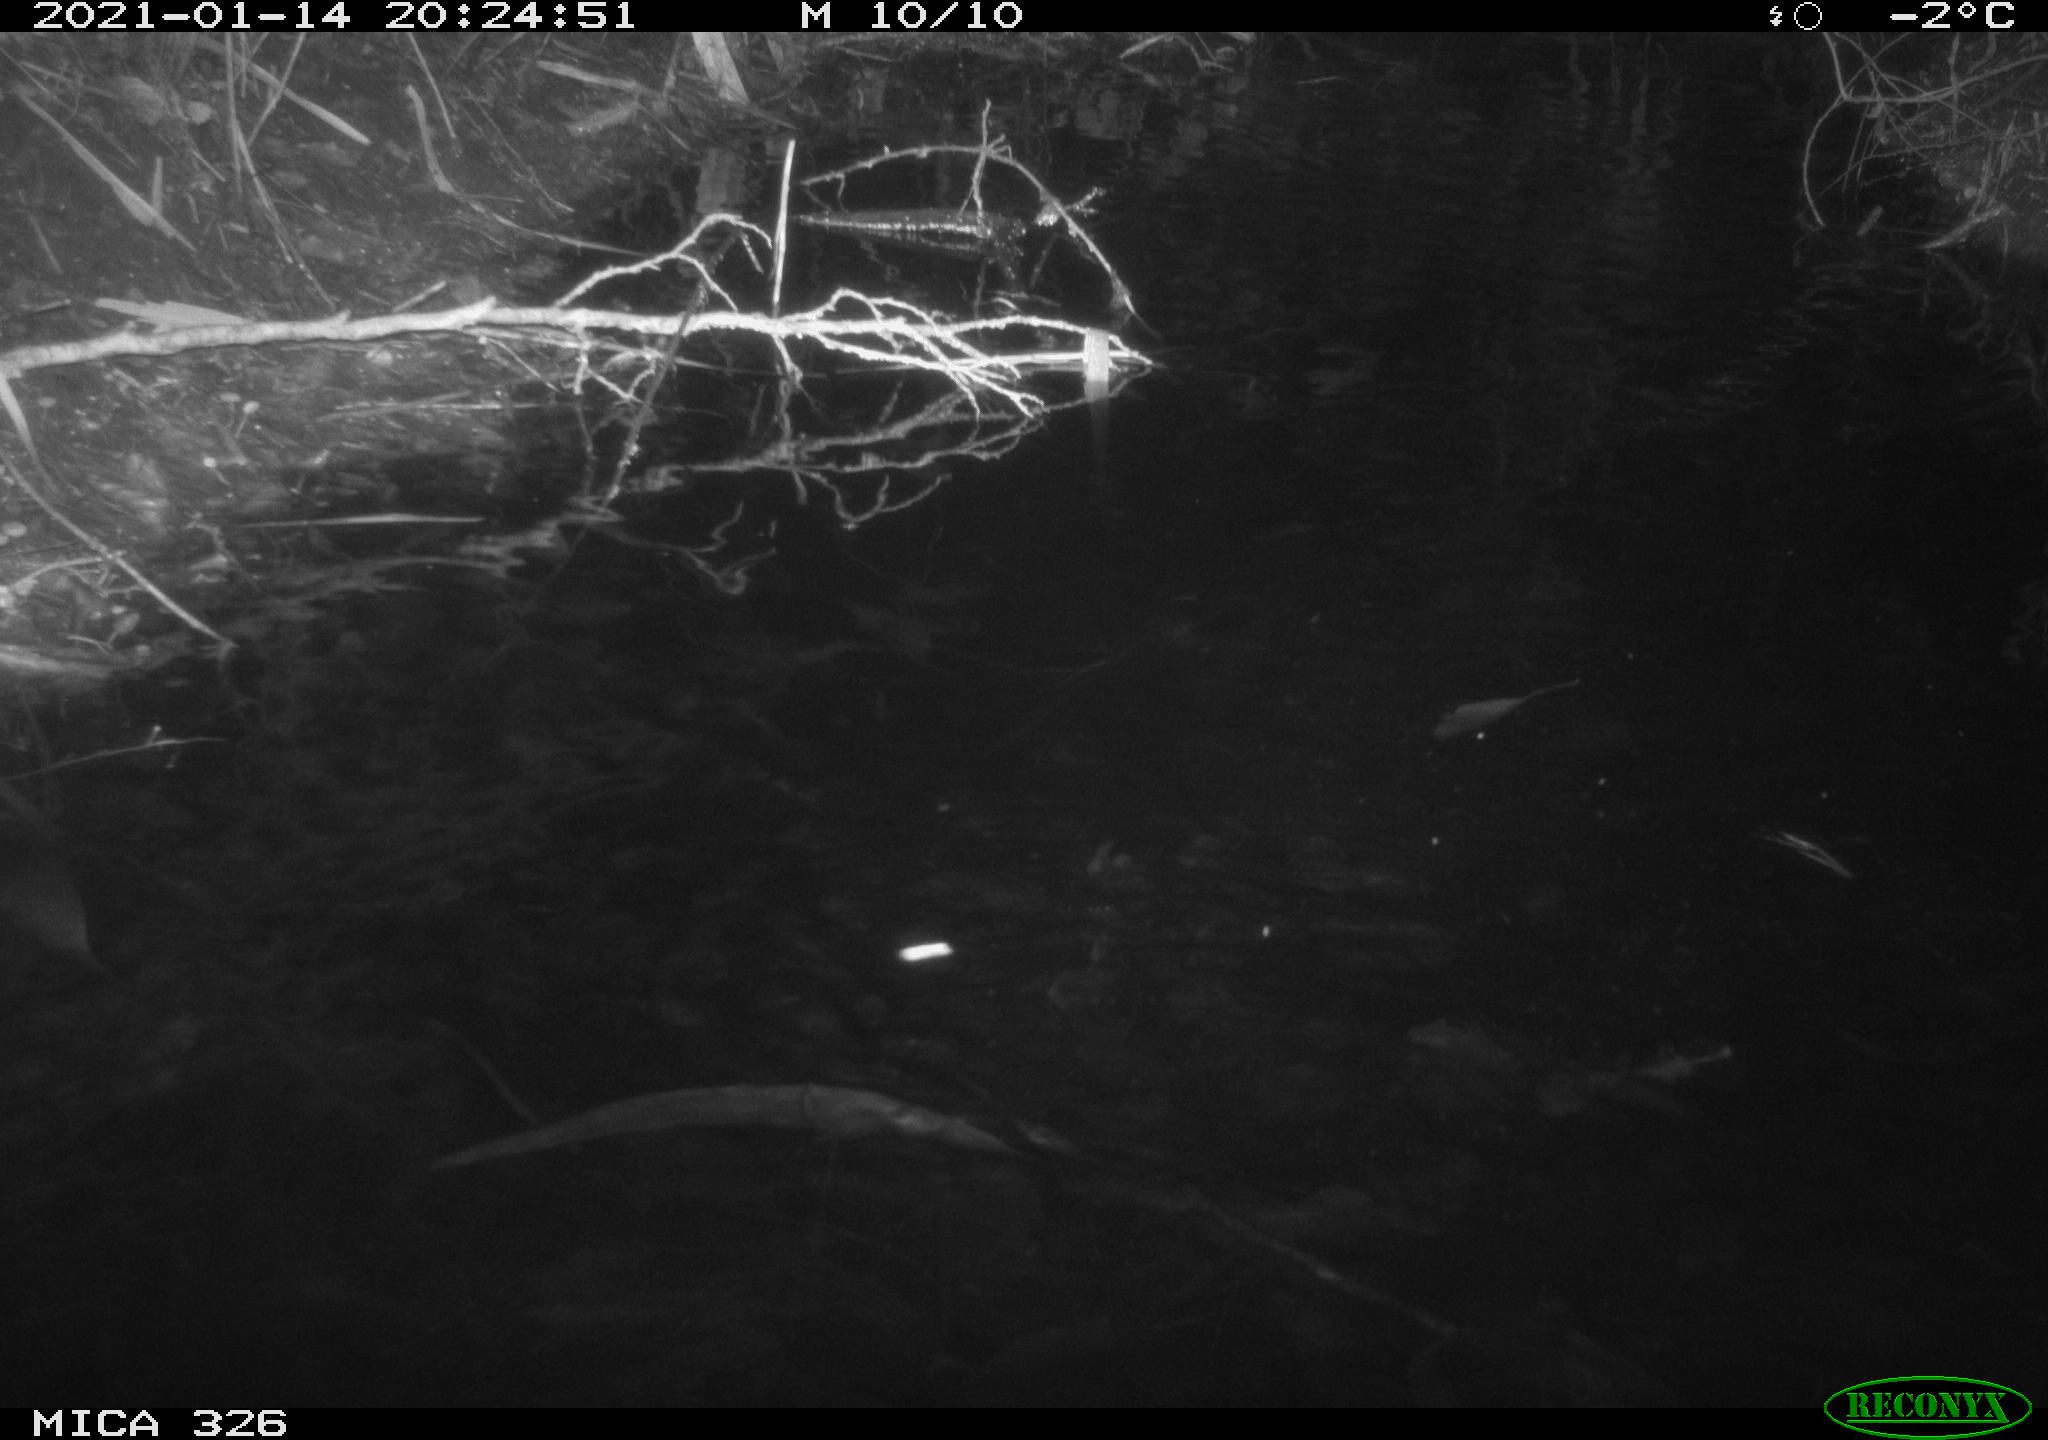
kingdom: Animalia
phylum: Chordata
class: Mammalia
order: Rodentia
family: Myocastoridae
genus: Myocastor
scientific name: Myocastor coypus
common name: Coypu
